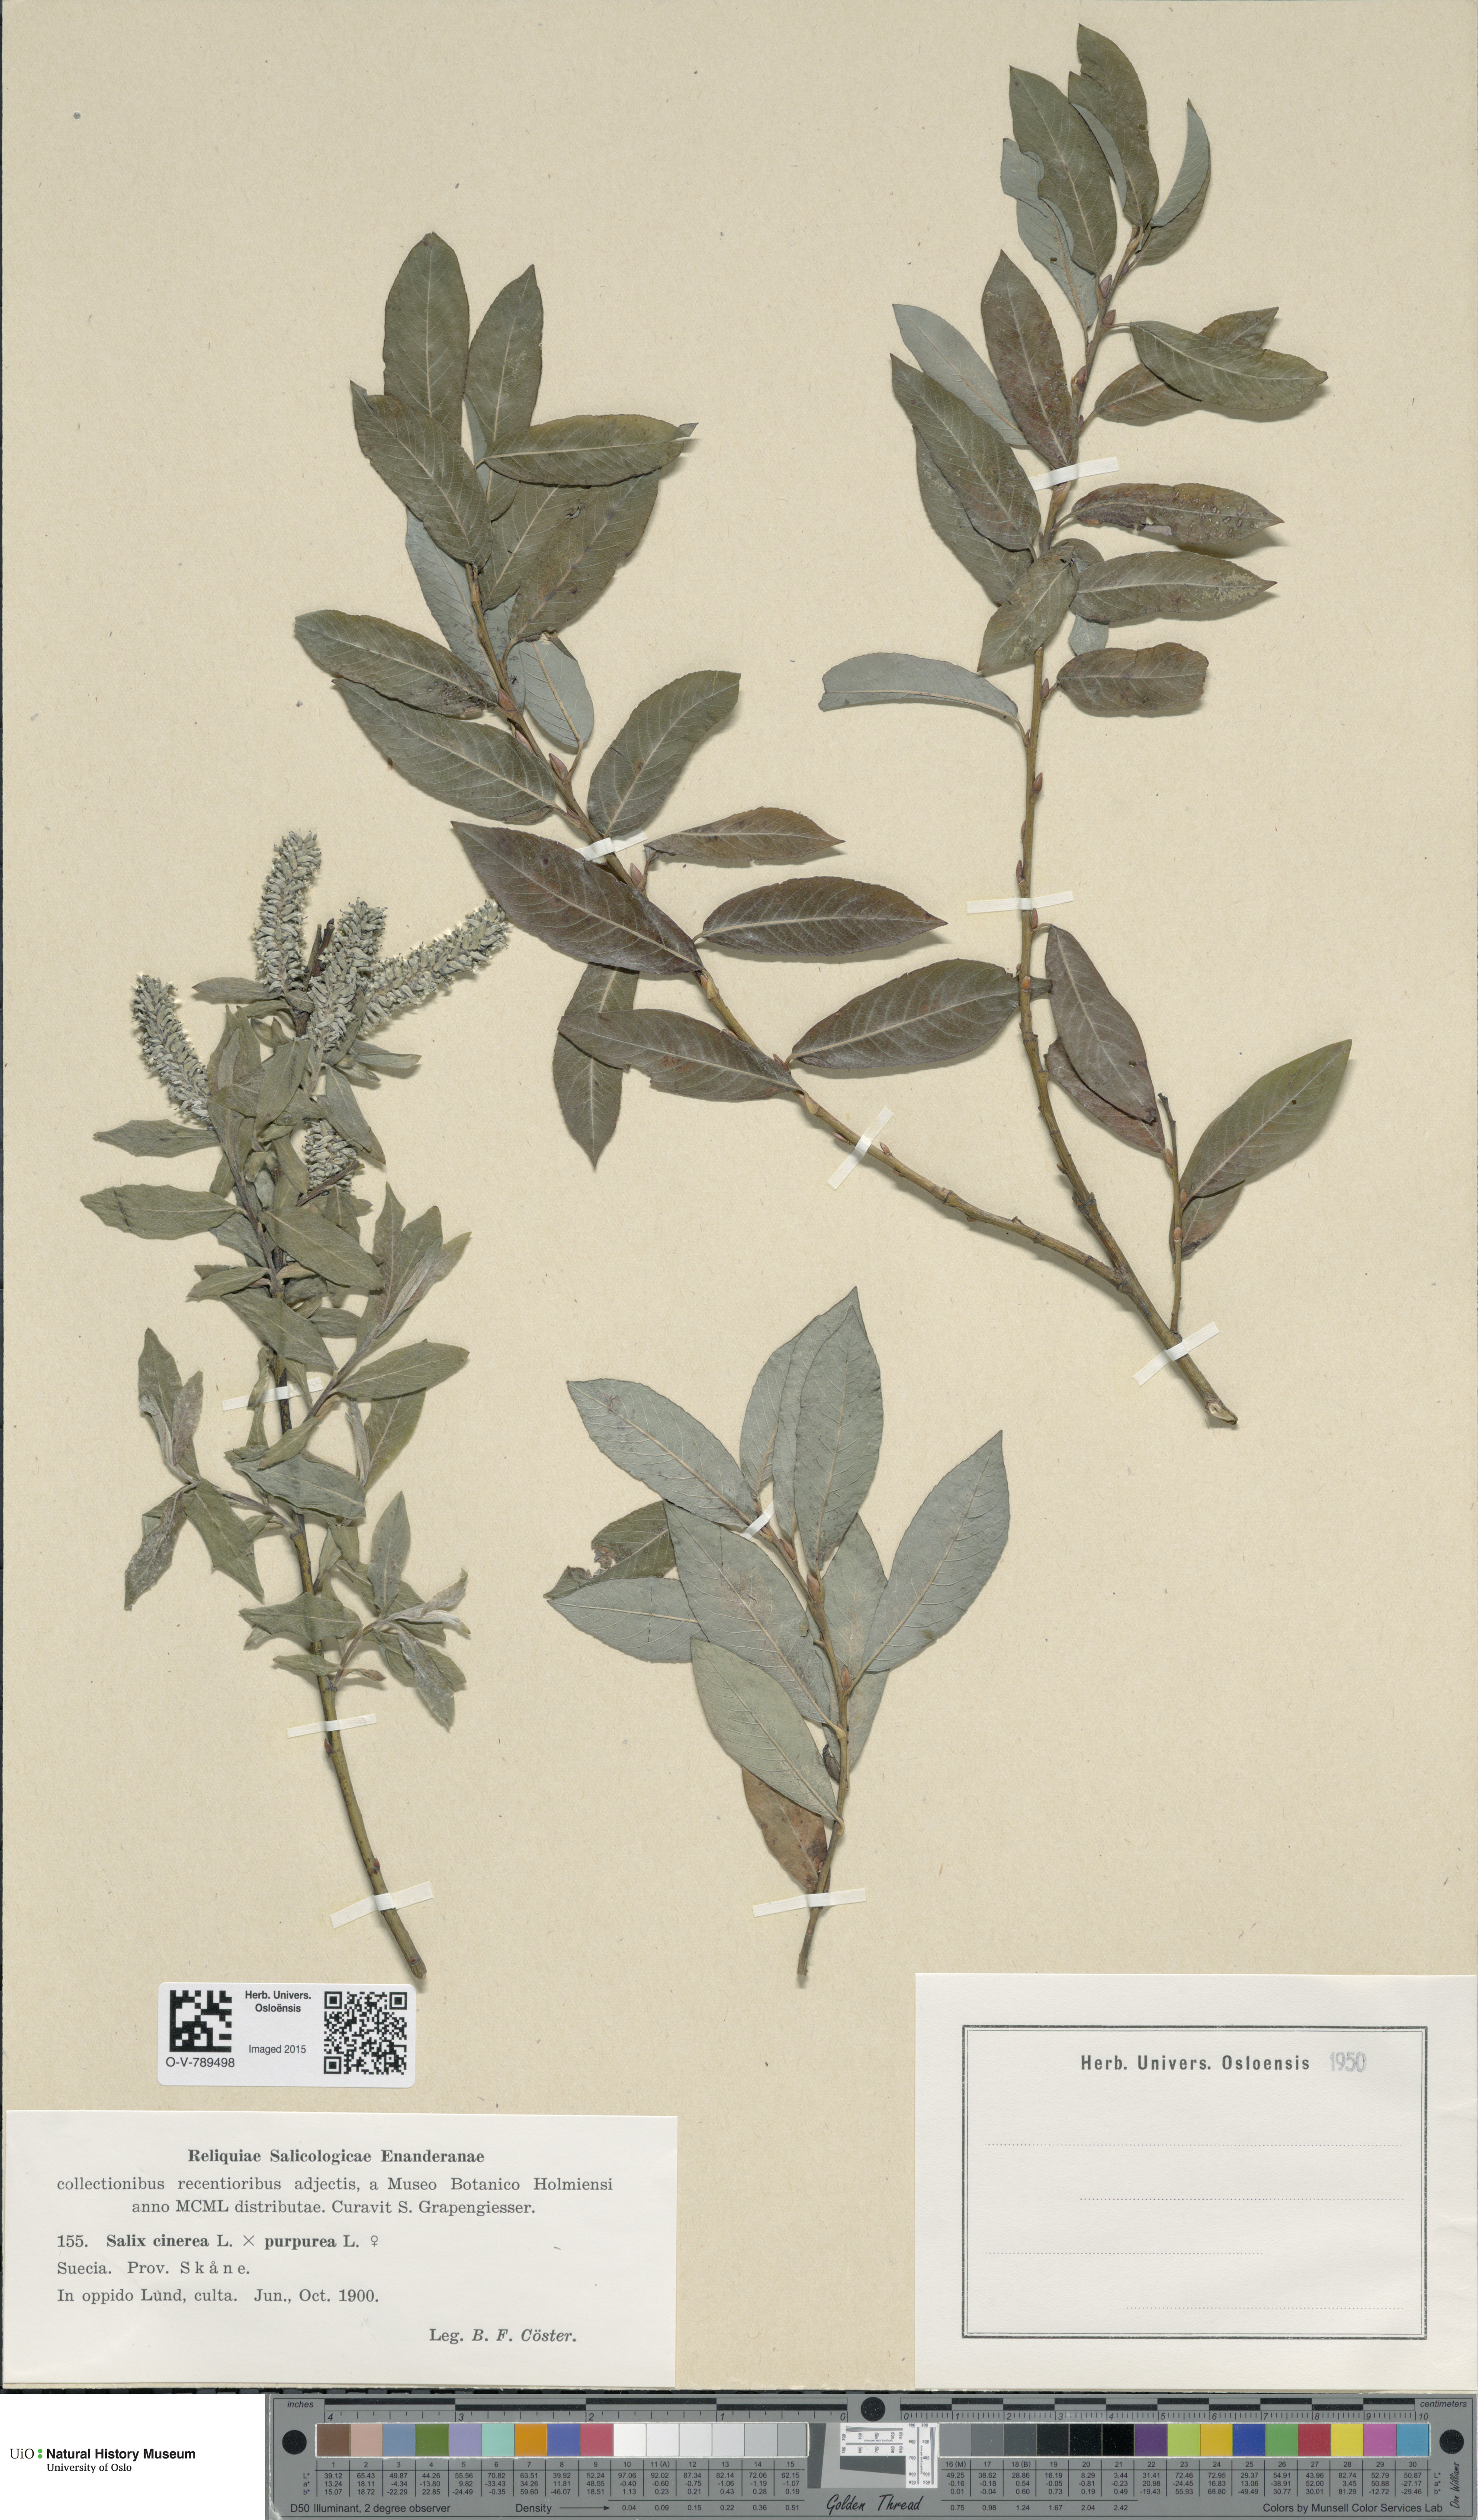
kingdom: Plantae
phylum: Tracheophyta
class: Magnoliopsida
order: Malpighiales
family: Salicaceae
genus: Salix
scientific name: Salix
